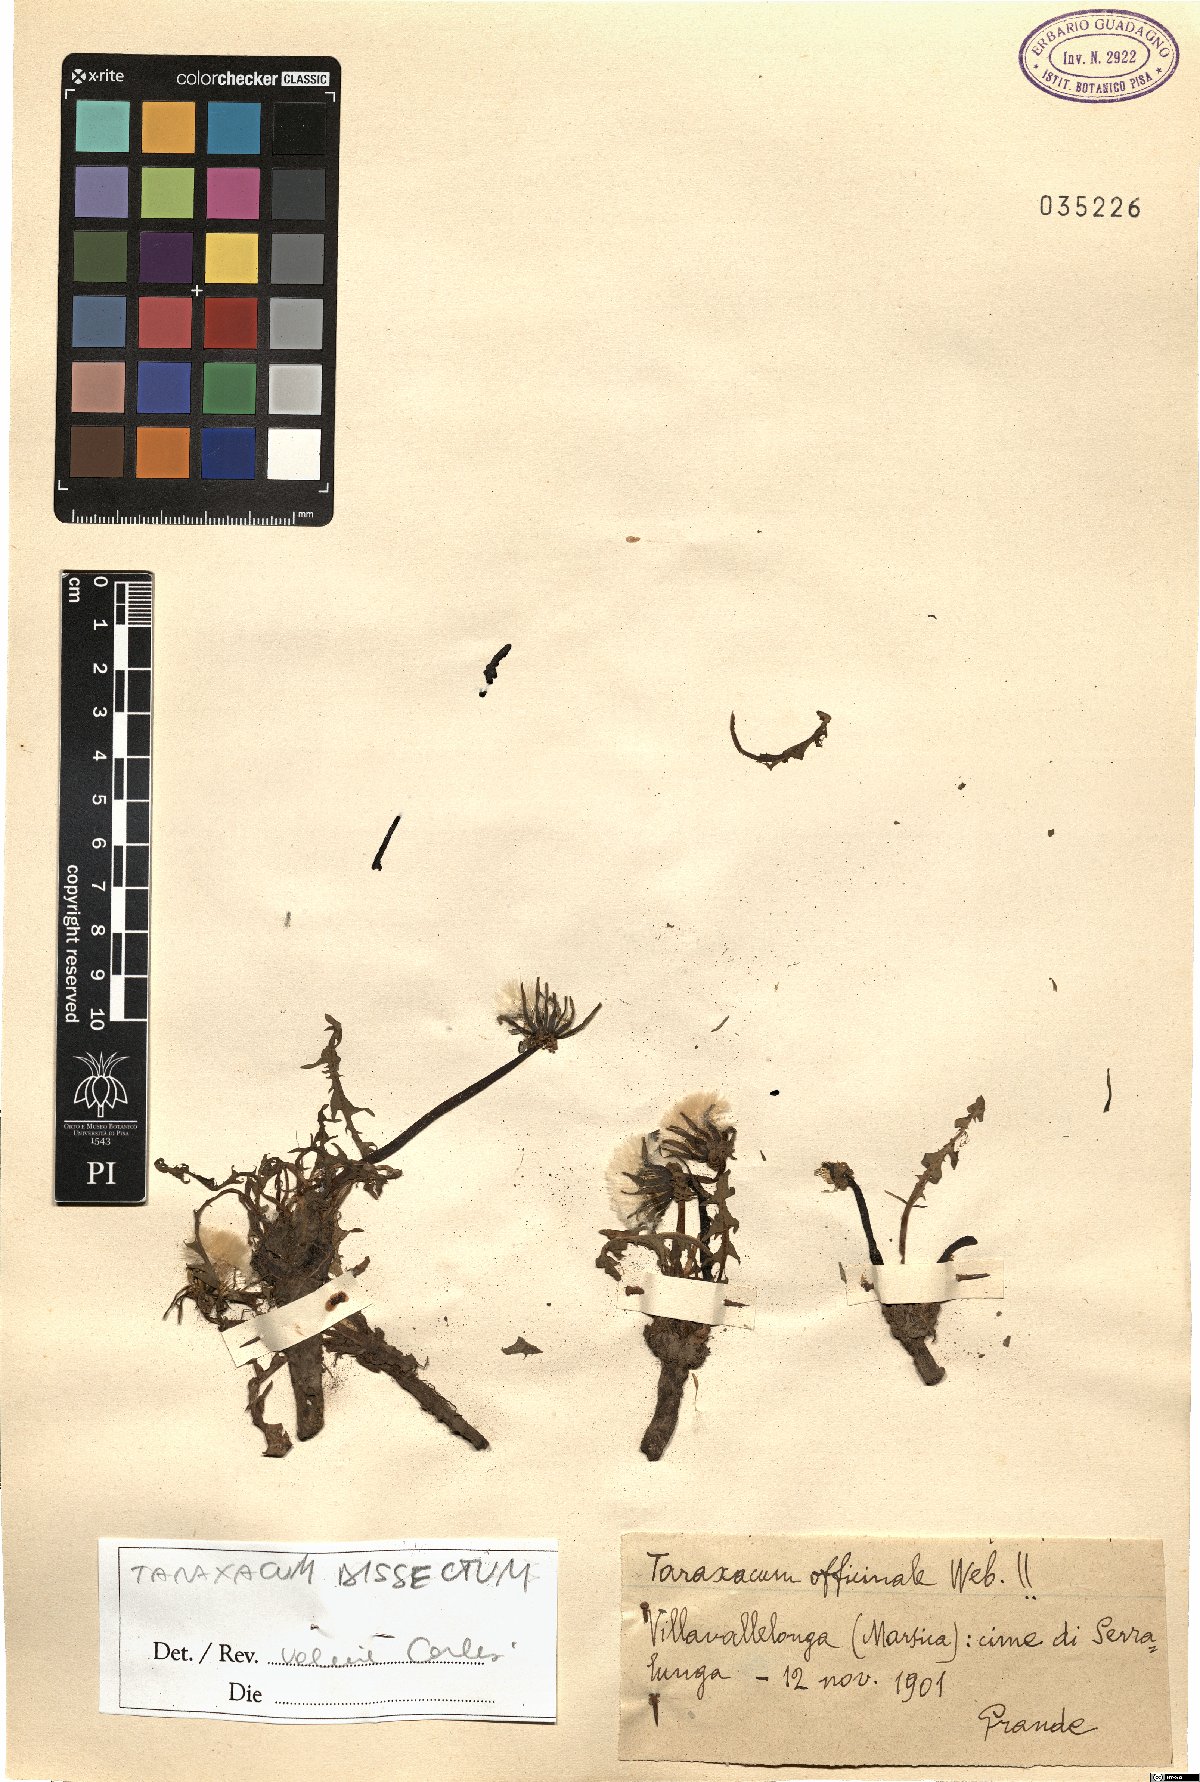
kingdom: Plantae
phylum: Tracheophyta
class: Magnoliopsida
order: Asterales
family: Asteraceae
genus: Taraxacum
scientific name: Taraxacum dissectum
